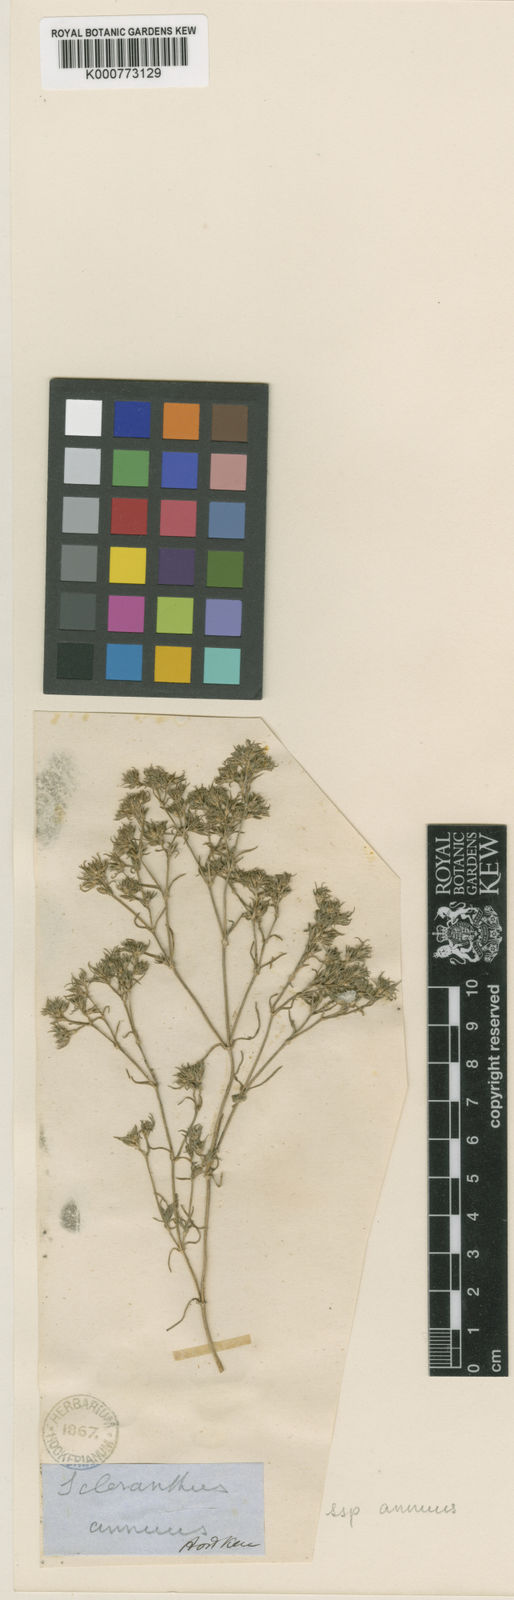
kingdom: Plantae
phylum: Tracheophyta
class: Magnoliopsida
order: Caryophyllales
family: Caryophyllaceae
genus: Scleranthus
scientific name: Scleranthus annuus
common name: Annual knawel
